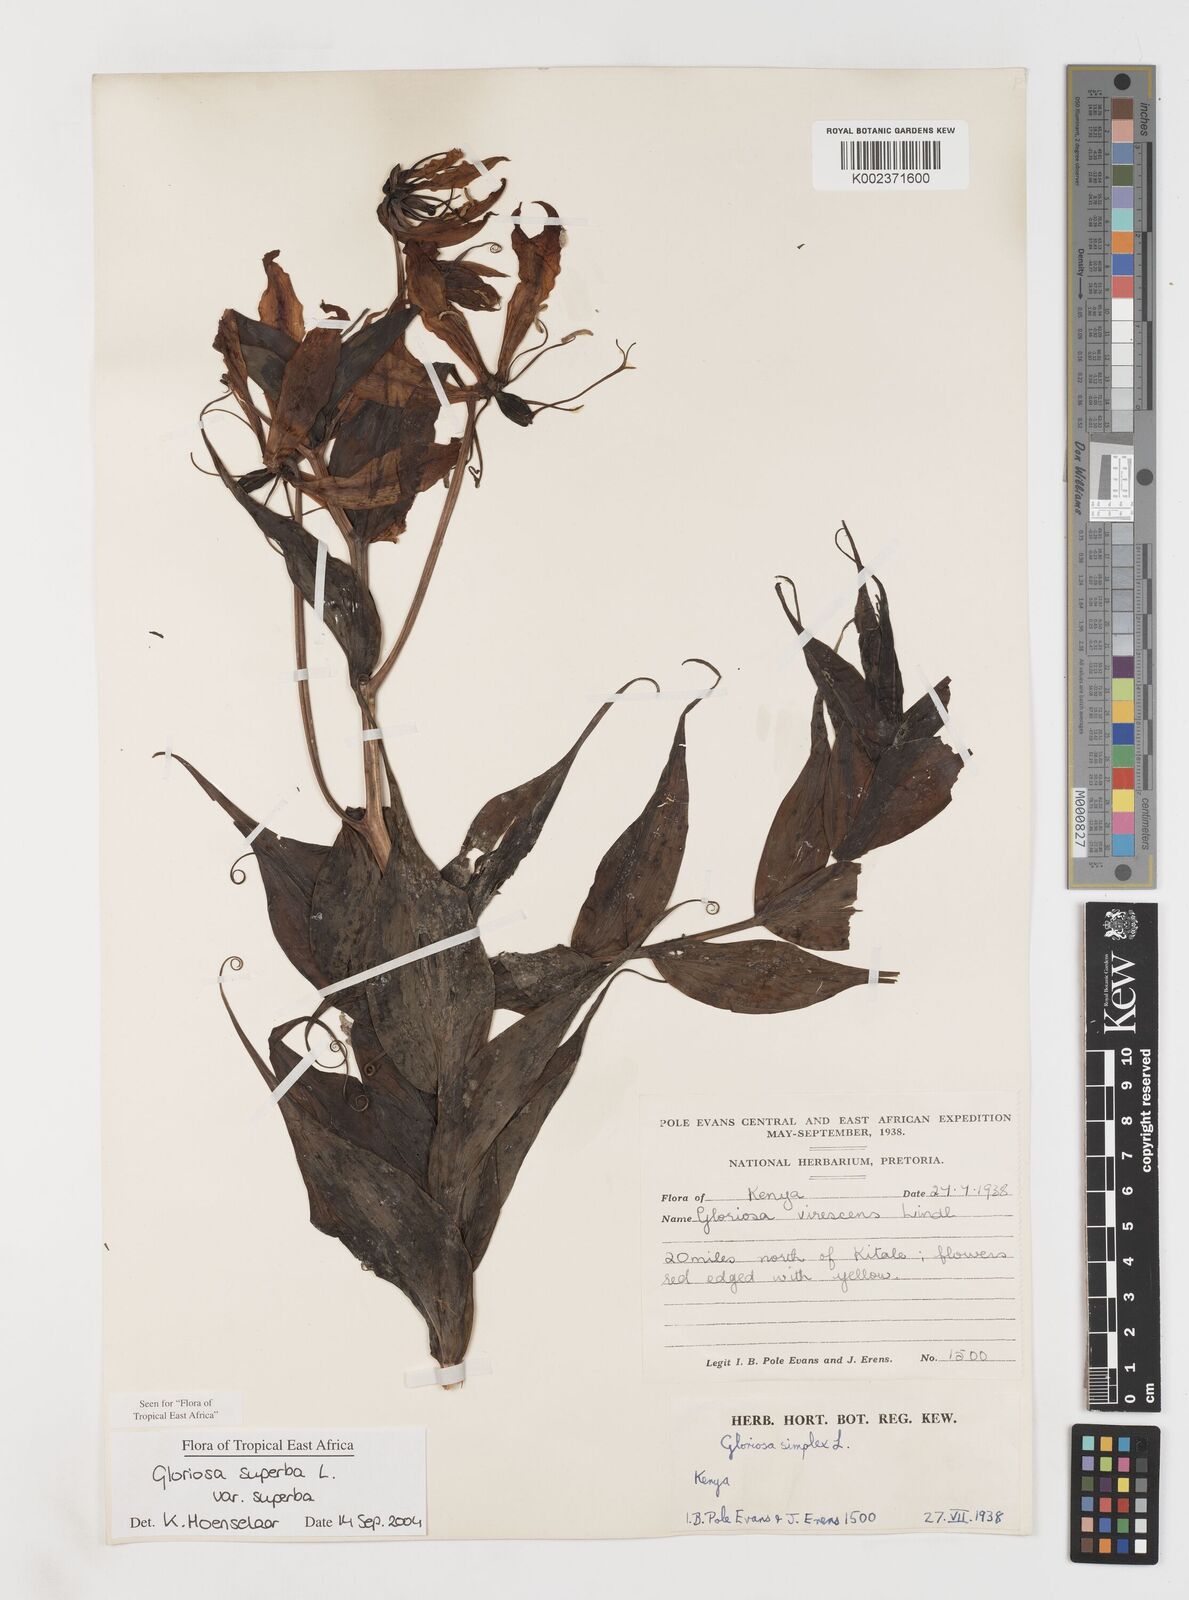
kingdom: Plantae
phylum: Tracheophyta
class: Liliopsida
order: Liliales
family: Colchicaceae
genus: Gloriosa
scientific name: Gloriosa simplex
